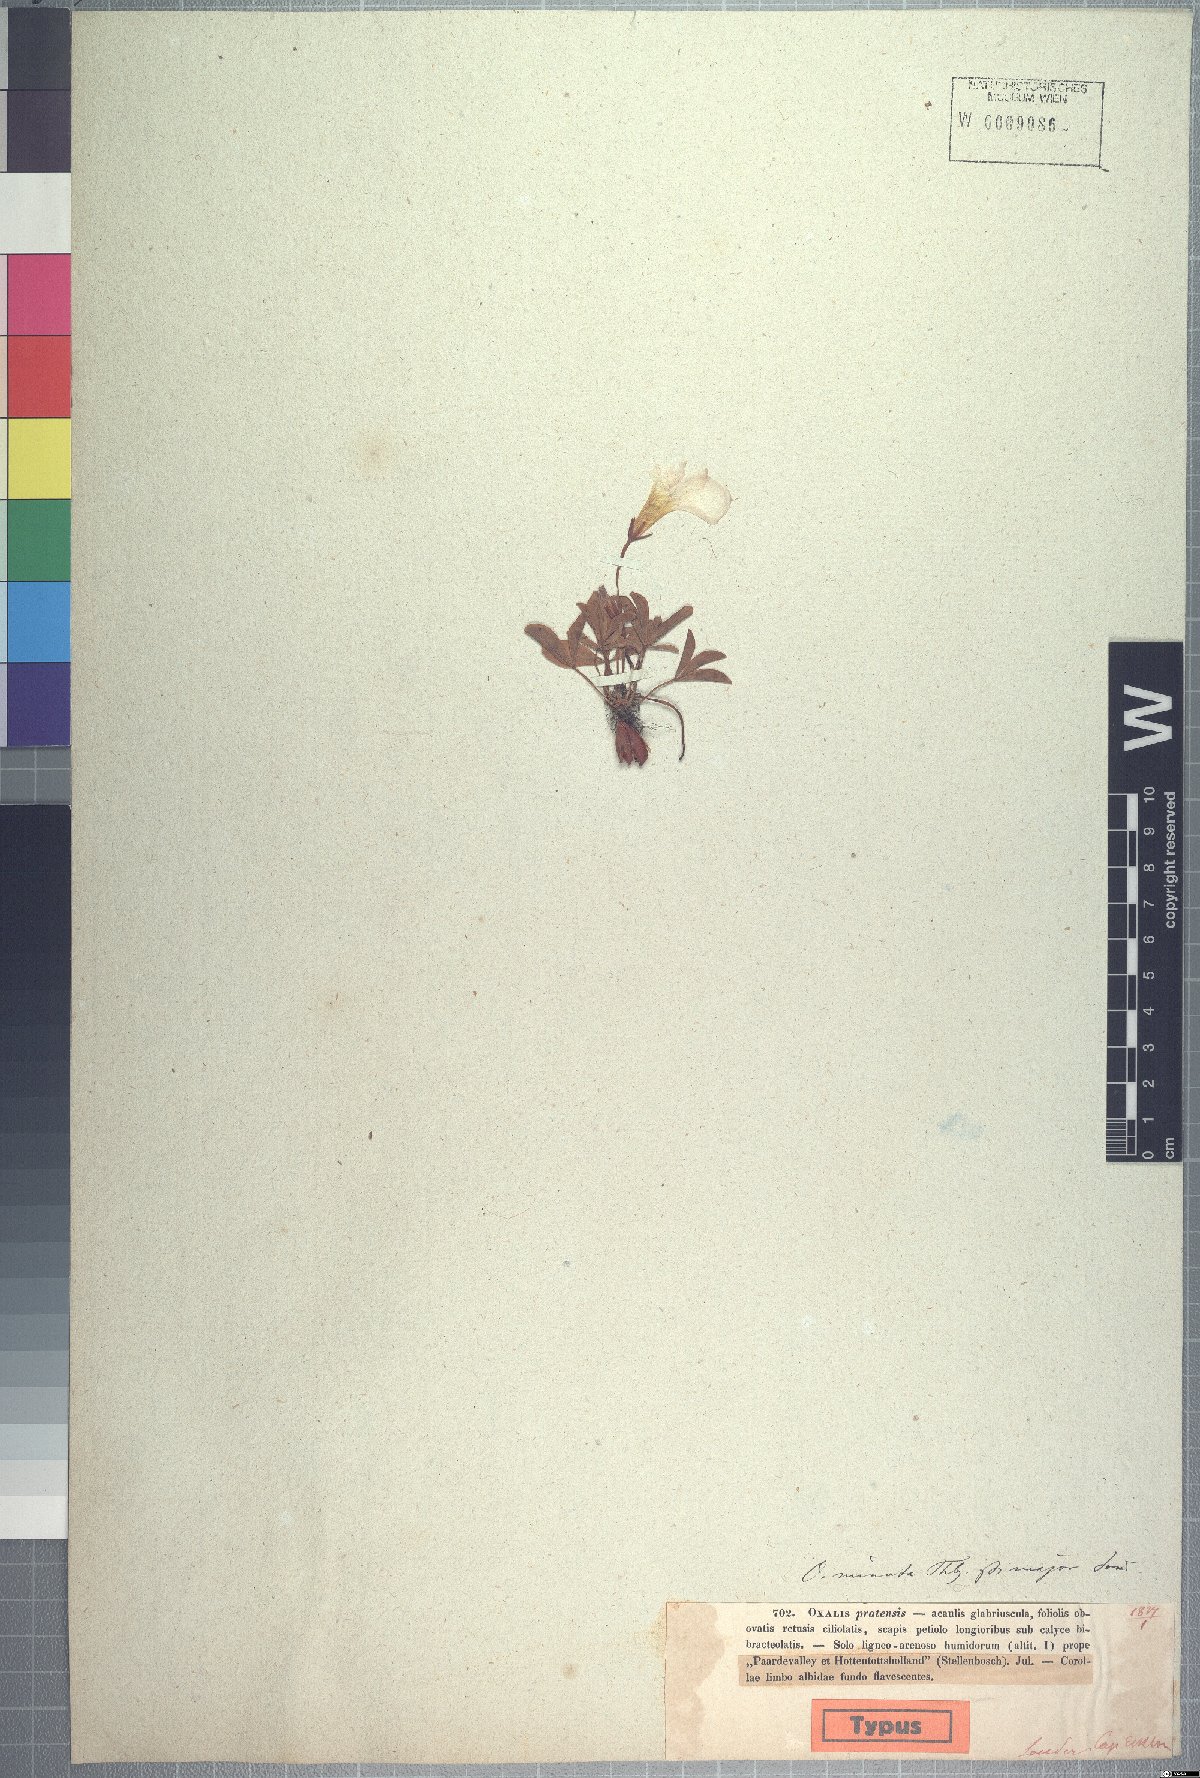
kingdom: Plantae
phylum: Tracheophyta
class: Magnoliopsida
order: Oxalidales
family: Oxalidaceae
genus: Oxalis
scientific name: Oxalis minuta
